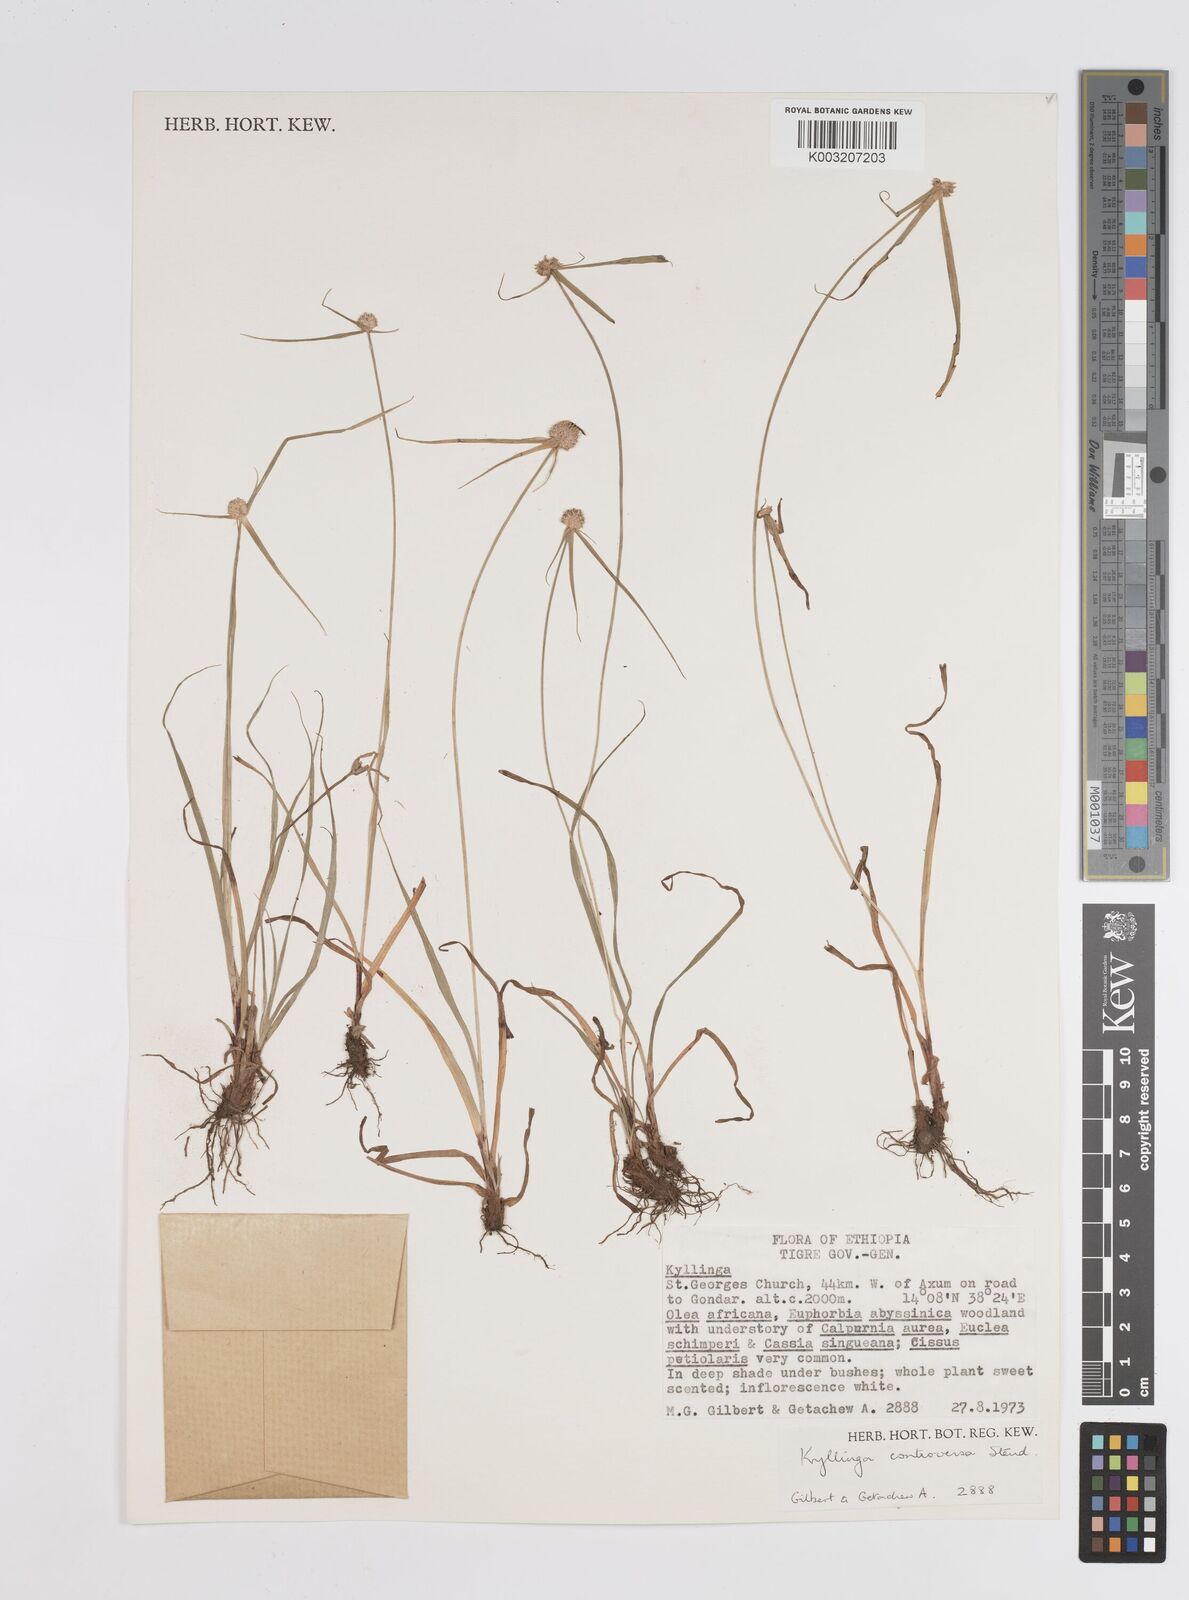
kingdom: Plantae
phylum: Tracheophyta
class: Liliopsida
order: Poales
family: Cyperaceae
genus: Cyperus
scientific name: Cyperus controversus
